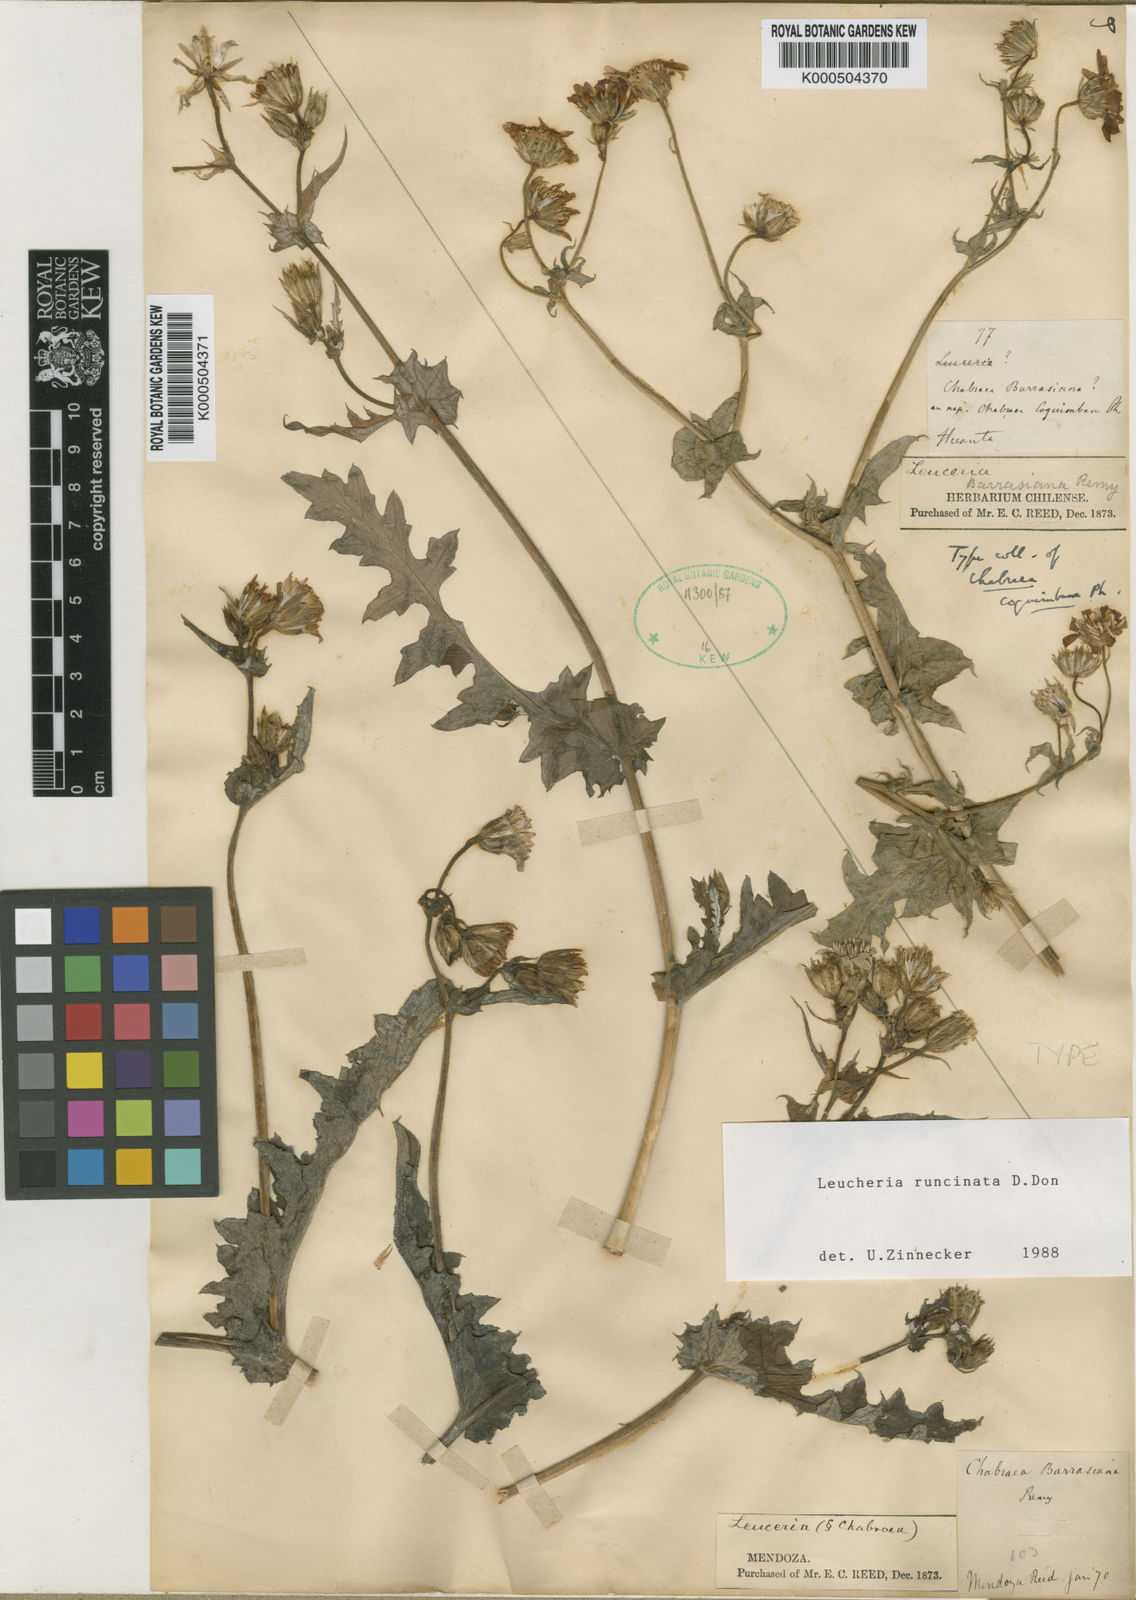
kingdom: Plantae
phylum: Tracheophyta
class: Magnoliopsida
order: Asterales
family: Asteraceae
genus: Leucheria
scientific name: Leucheria runcinata
